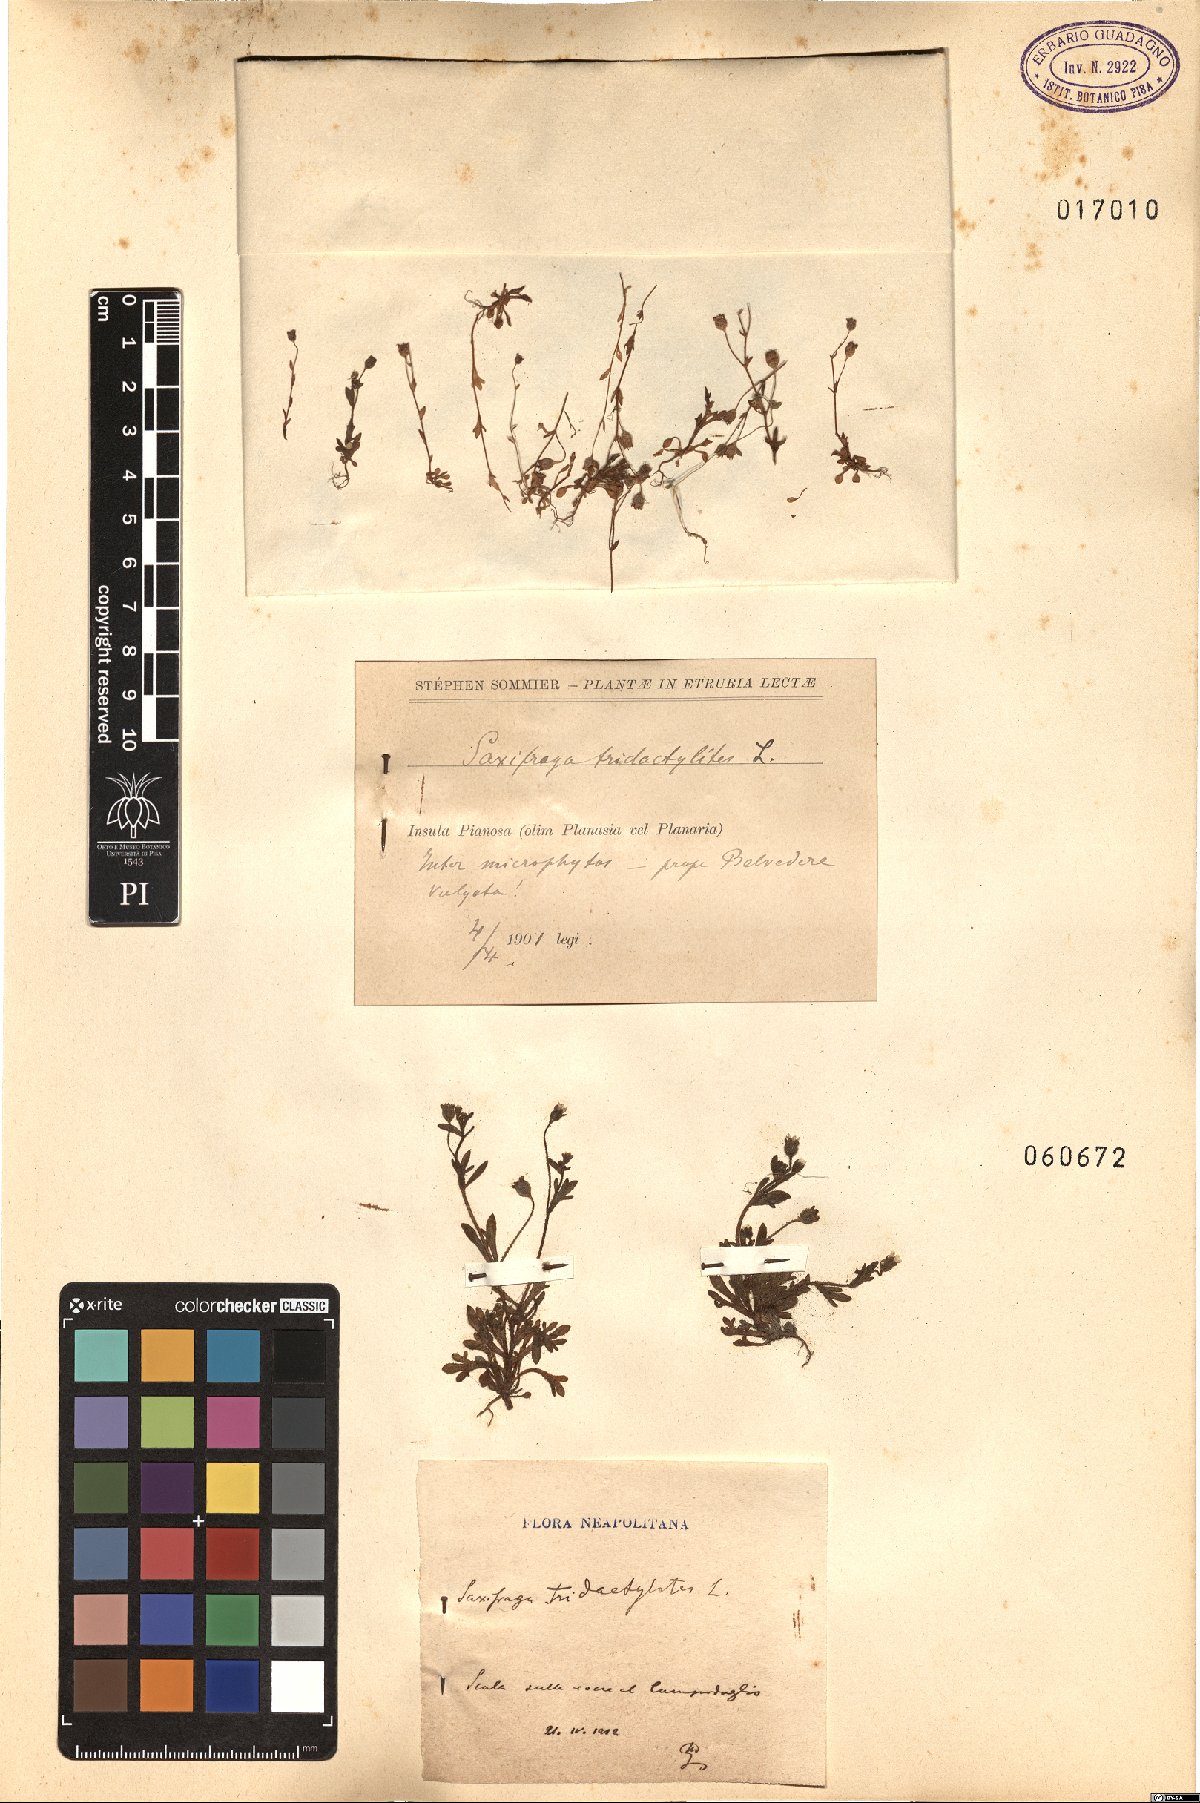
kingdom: Plantae
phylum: Tracheophyta
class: Magnoliopsida
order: Saxifragales
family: Saxifragaceae
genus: Saxifraga
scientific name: Saxifraga tridactylites
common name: Rue-leaved saxifrage
